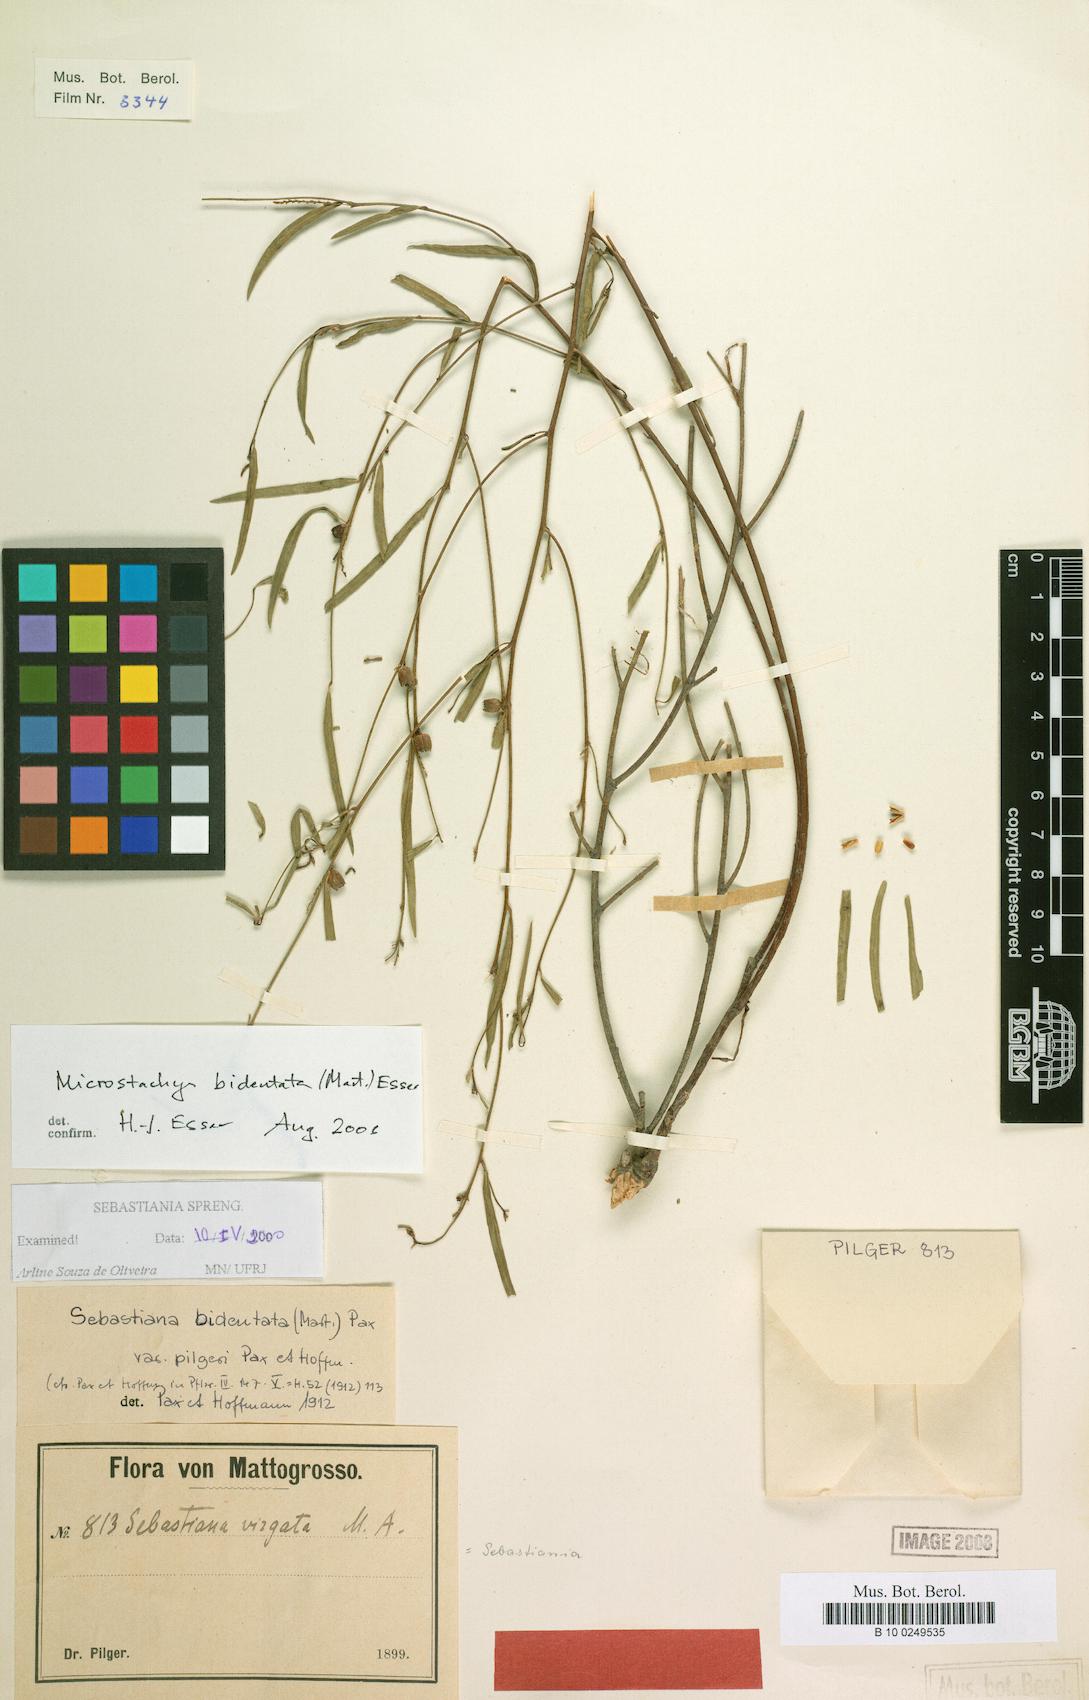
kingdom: Plantae
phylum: Tracheophyta
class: Magnoliopsida
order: Malpighiales
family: Euphorbiaceae
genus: Microstachys
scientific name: Microstachys bidentata
